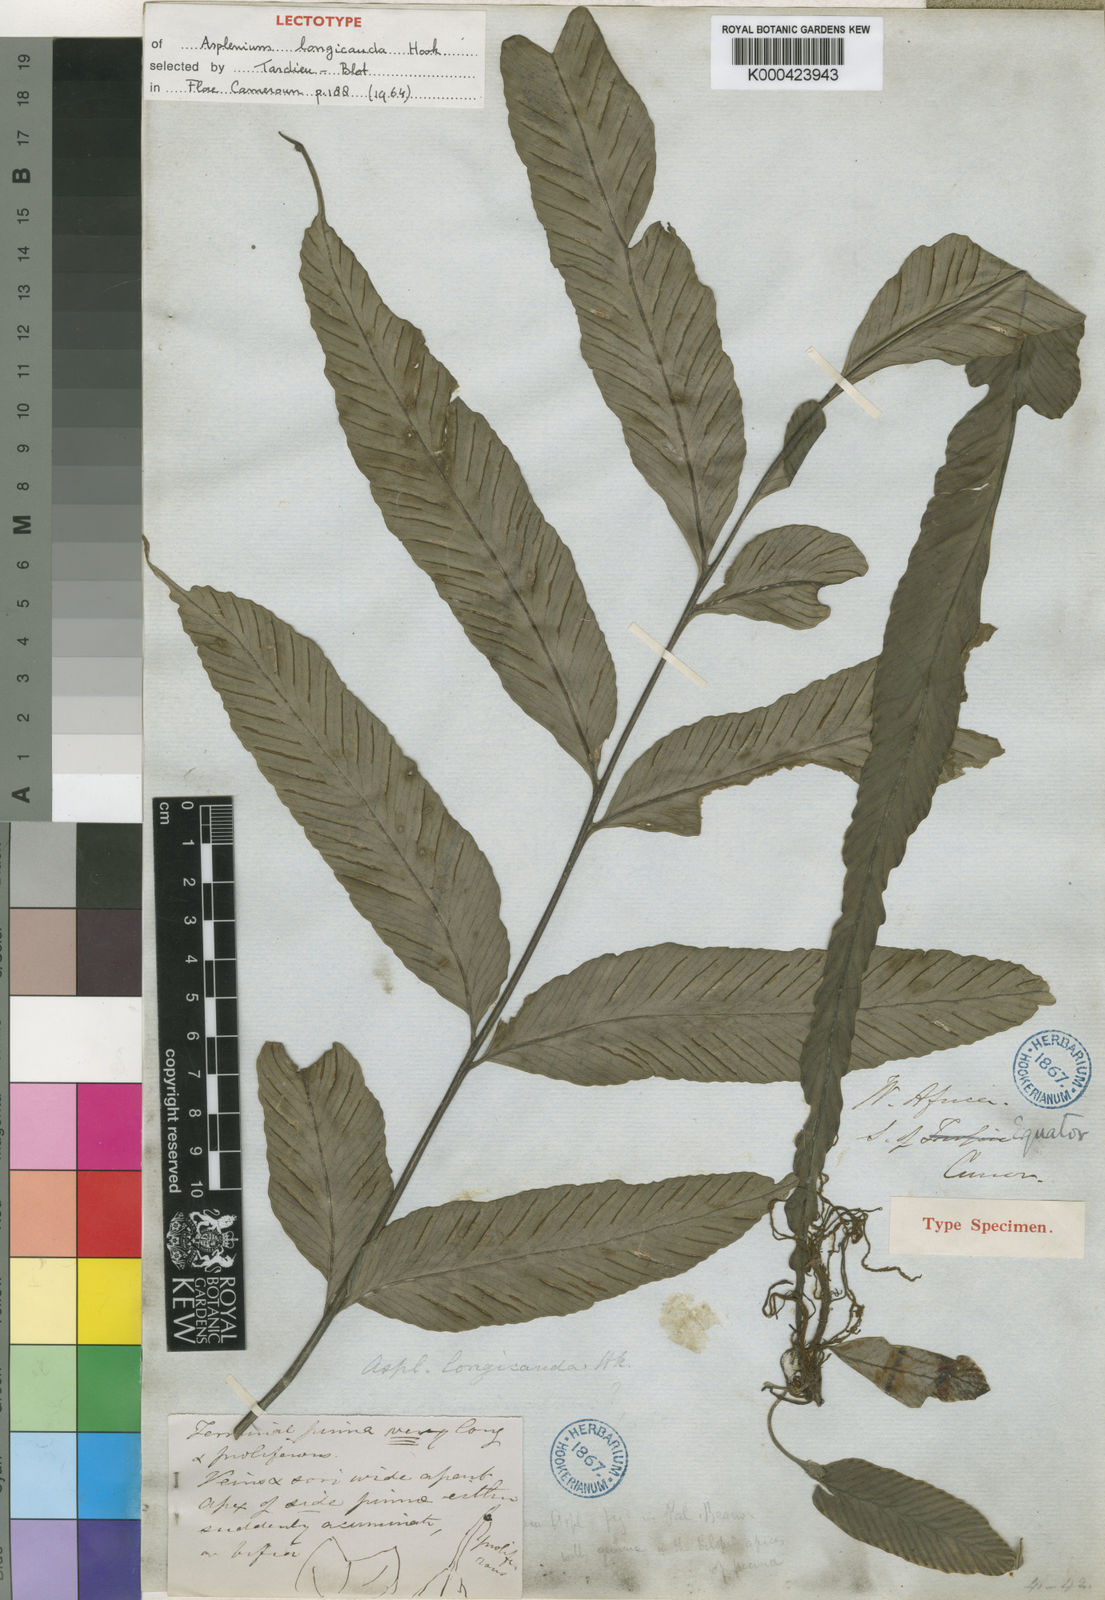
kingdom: Plantae
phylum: Tracheophyta
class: Polypodiopsida
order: Polypodiales
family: Aspleniaceae
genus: Asplenium
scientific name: Asplenium longicauda
